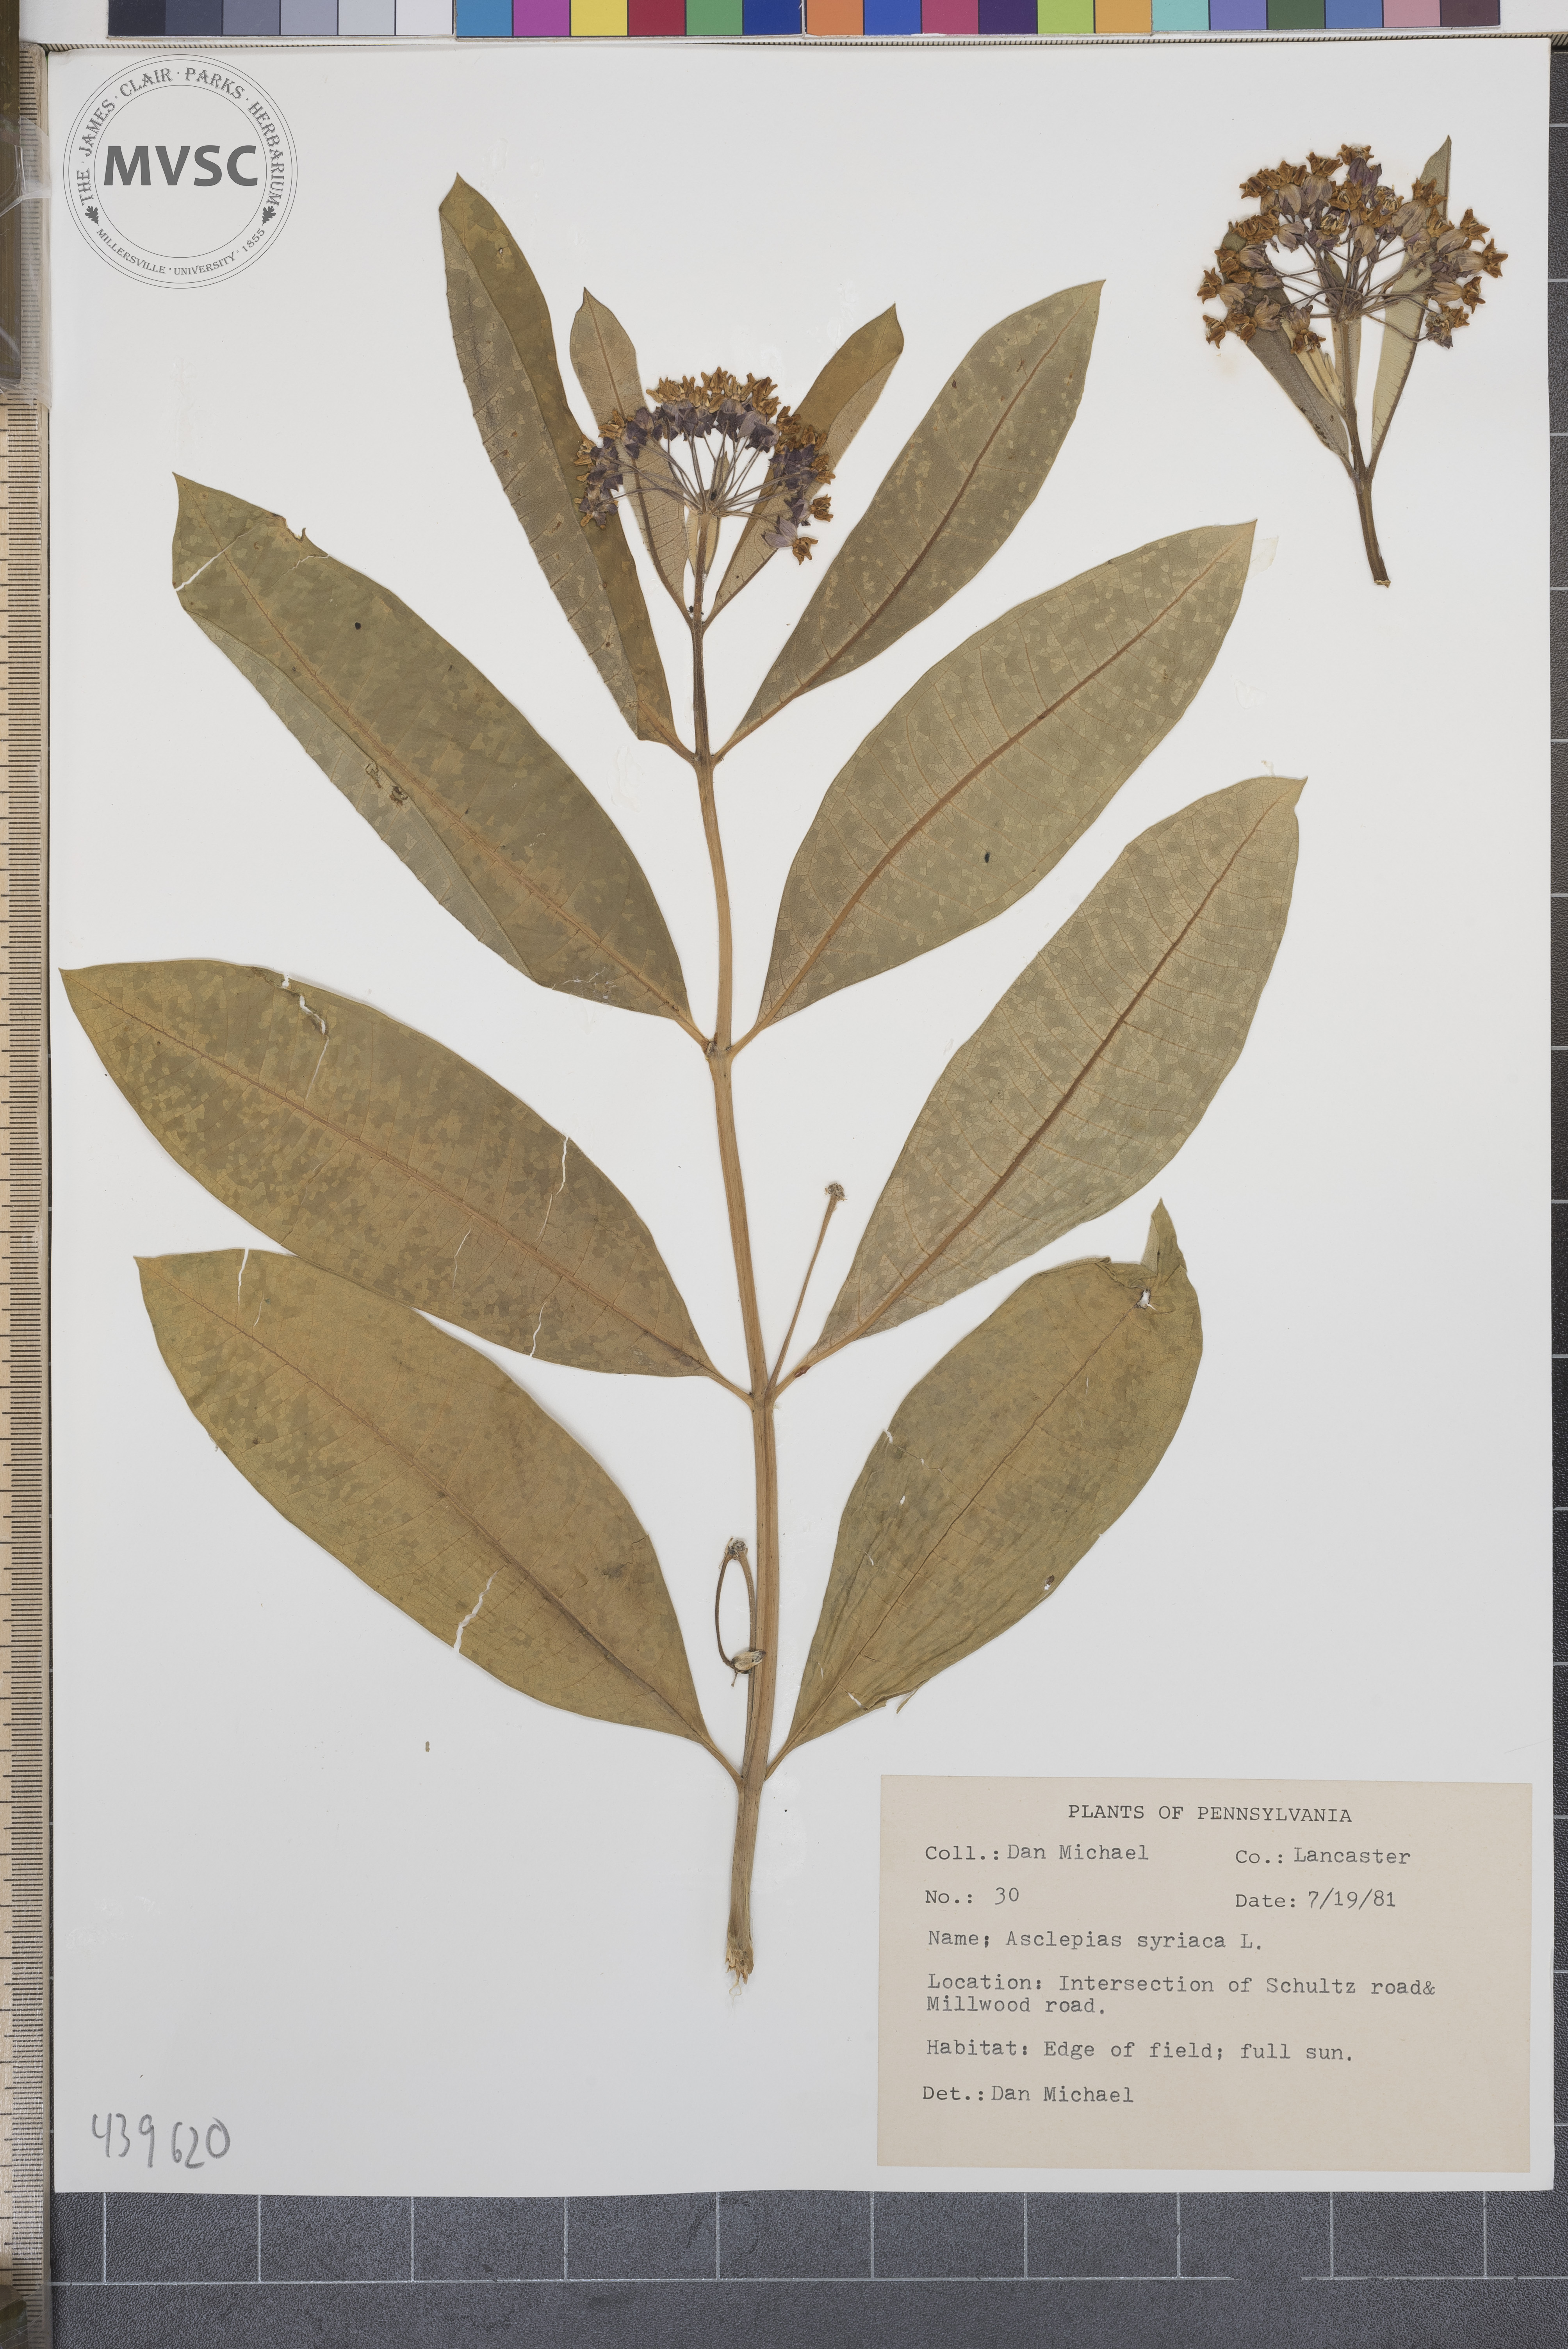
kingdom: Plantae
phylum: Tracheophyta
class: Magnoliopsida
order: Gentianales
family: Apocynaceae
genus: Asclepias
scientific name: Asclepias syriaca
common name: Common milkweed
